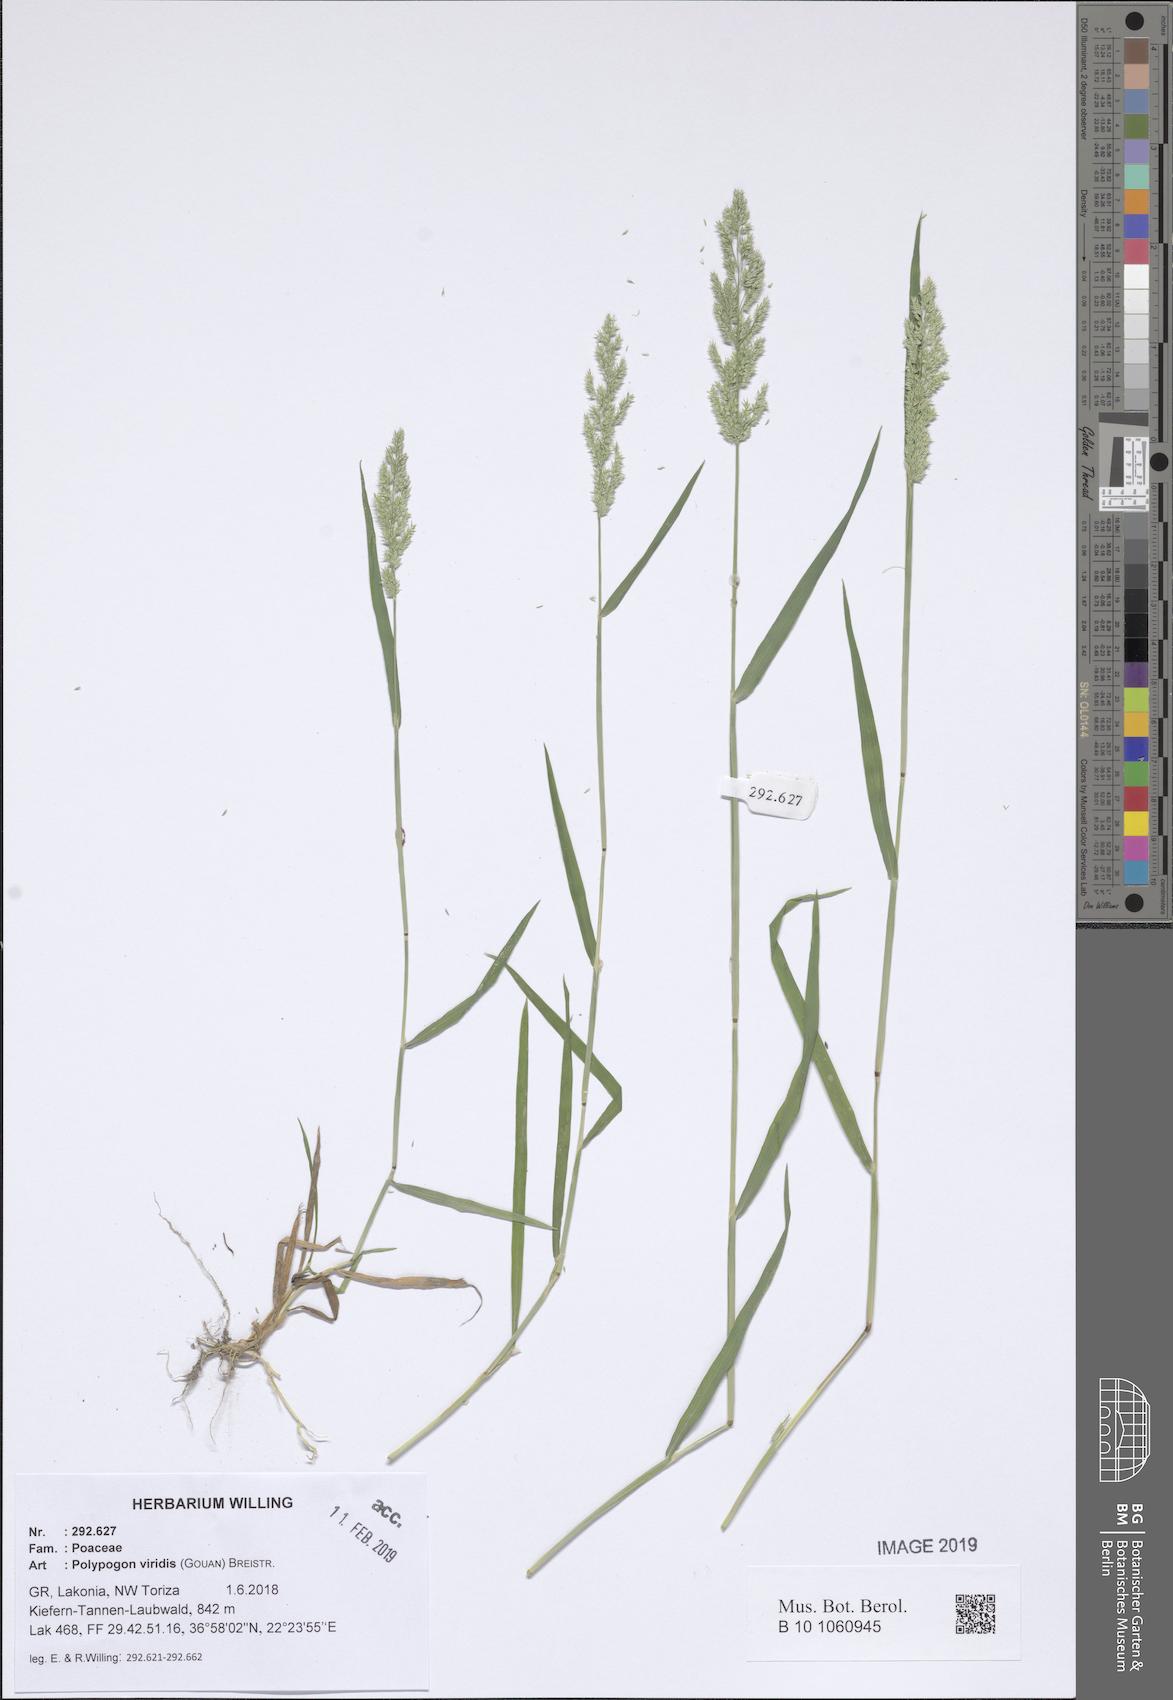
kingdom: Plantae
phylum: Tracheophyta
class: Liliopsida
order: Poales
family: Poaceae
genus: Polypogon
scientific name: Polypogon viridis
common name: Water bent
